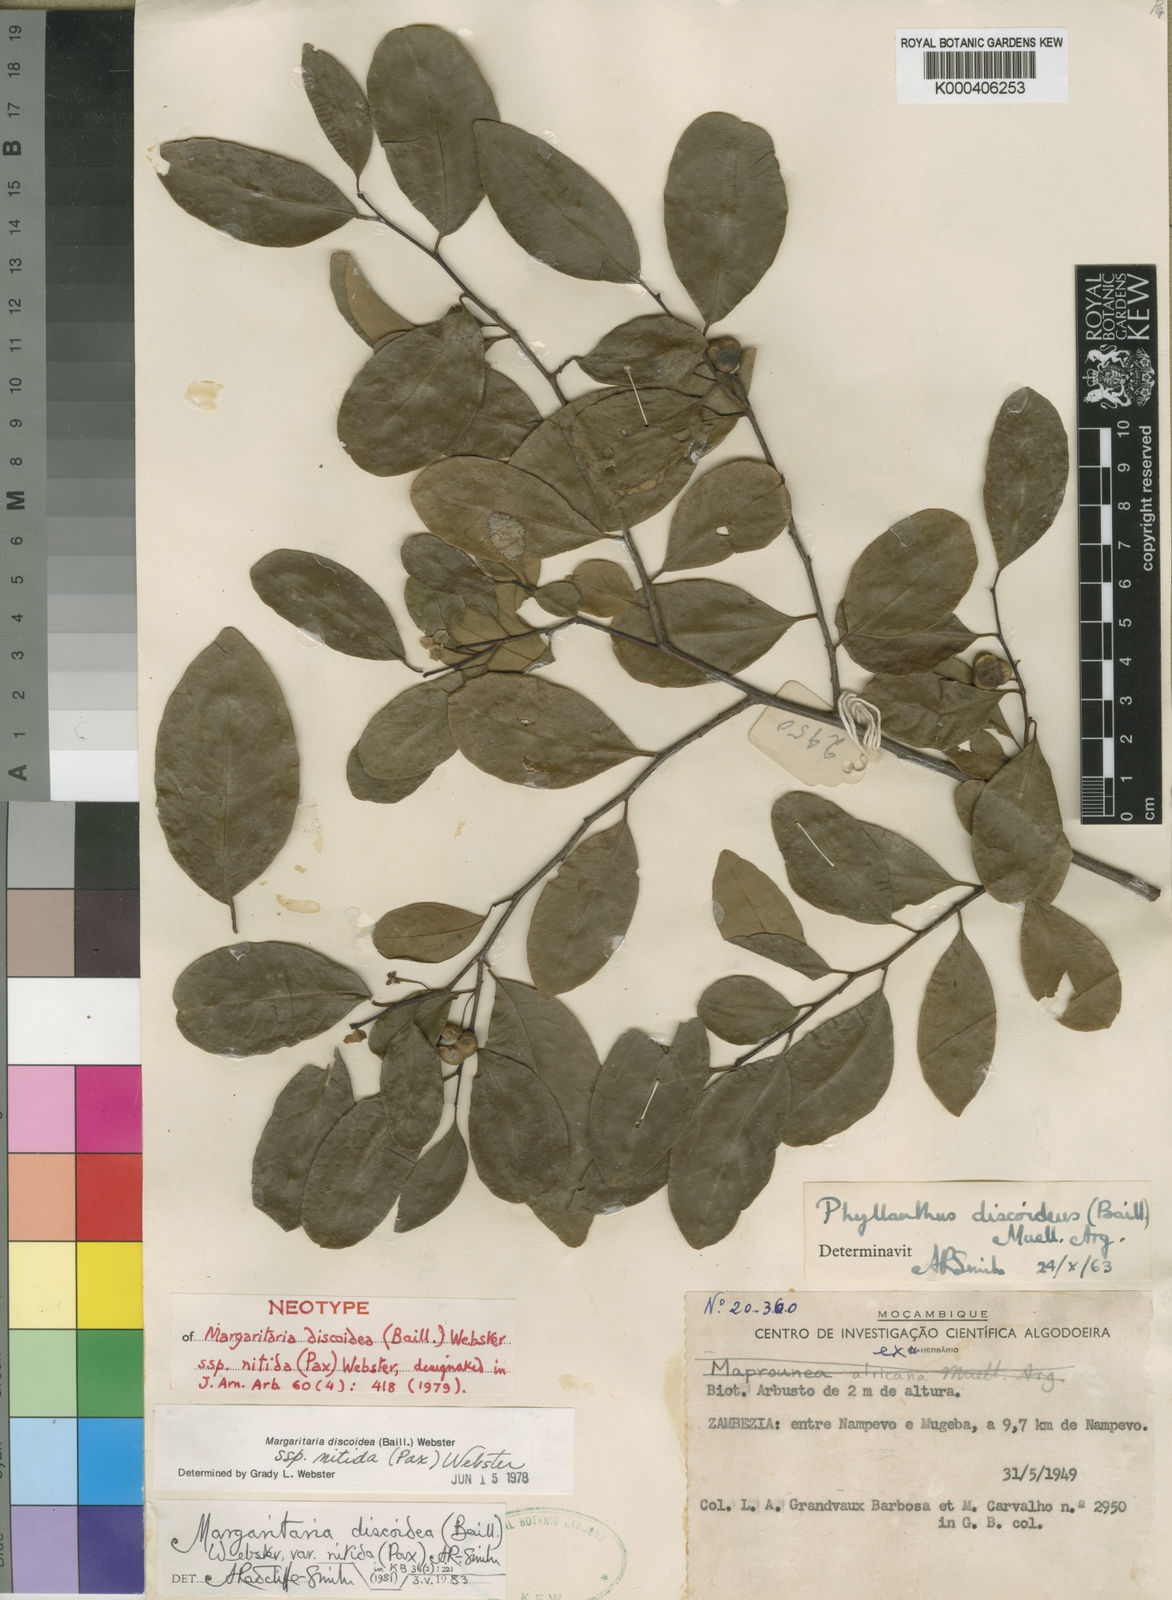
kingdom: Plantae
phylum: Tracheophyta
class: Magnoliopsida
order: Malpighiales
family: Phyllanthaceae
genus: Margaritaria
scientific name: Margaritaria discoidea
